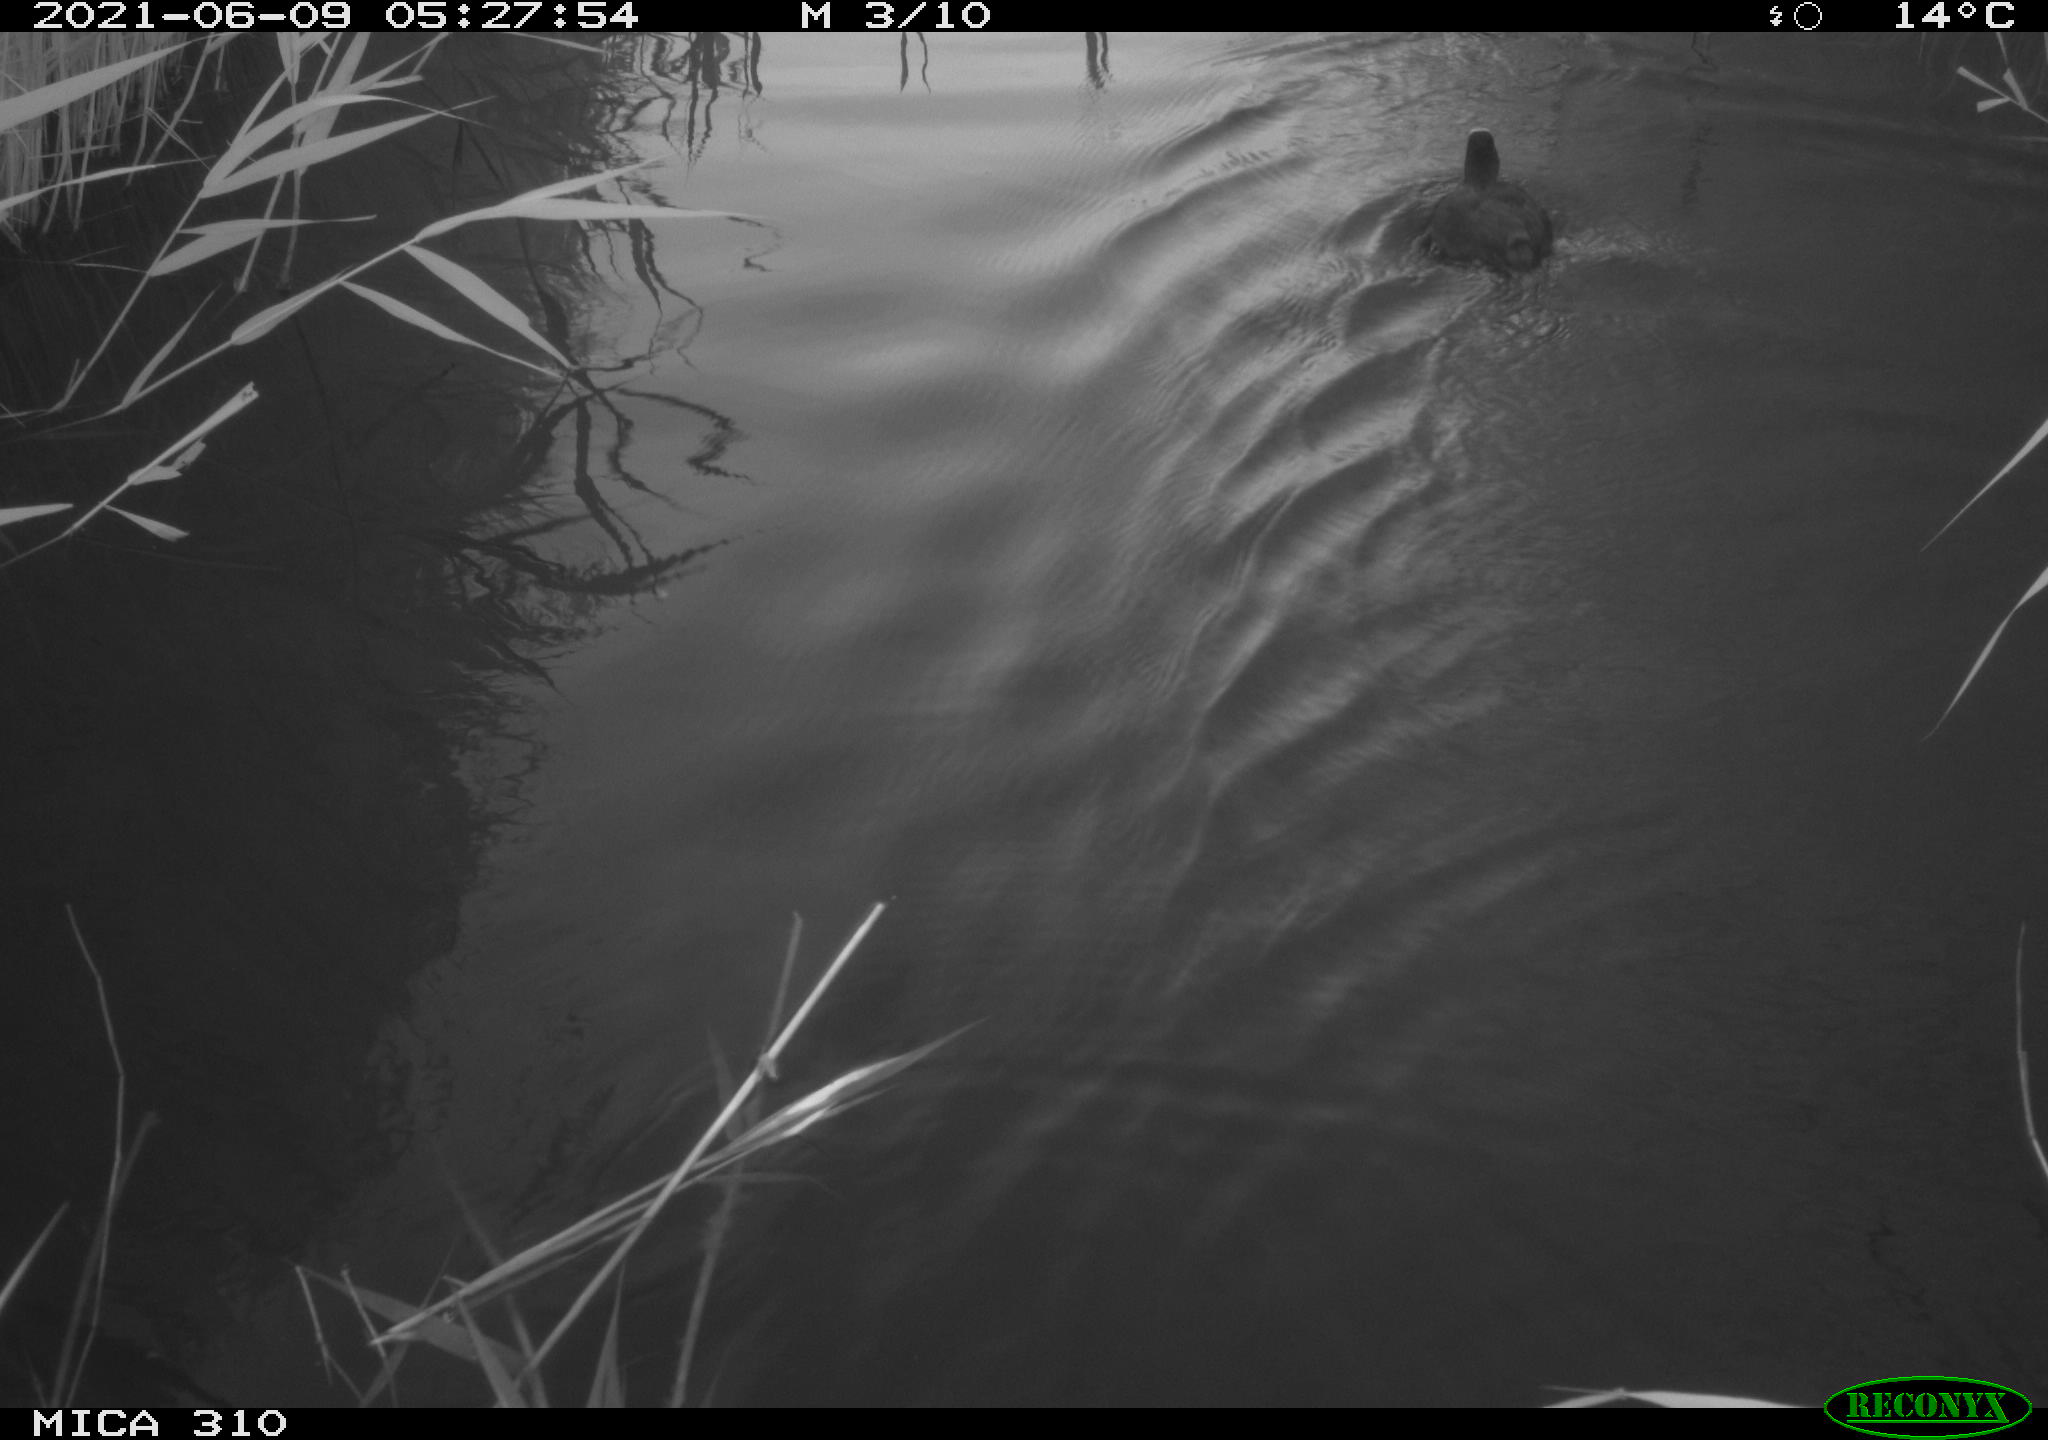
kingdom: Animalia
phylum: Chordata
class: Aves
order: Gruiformes
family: Rallidae
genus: Fulica
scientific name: Fulica atra
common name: Eurasian coot
